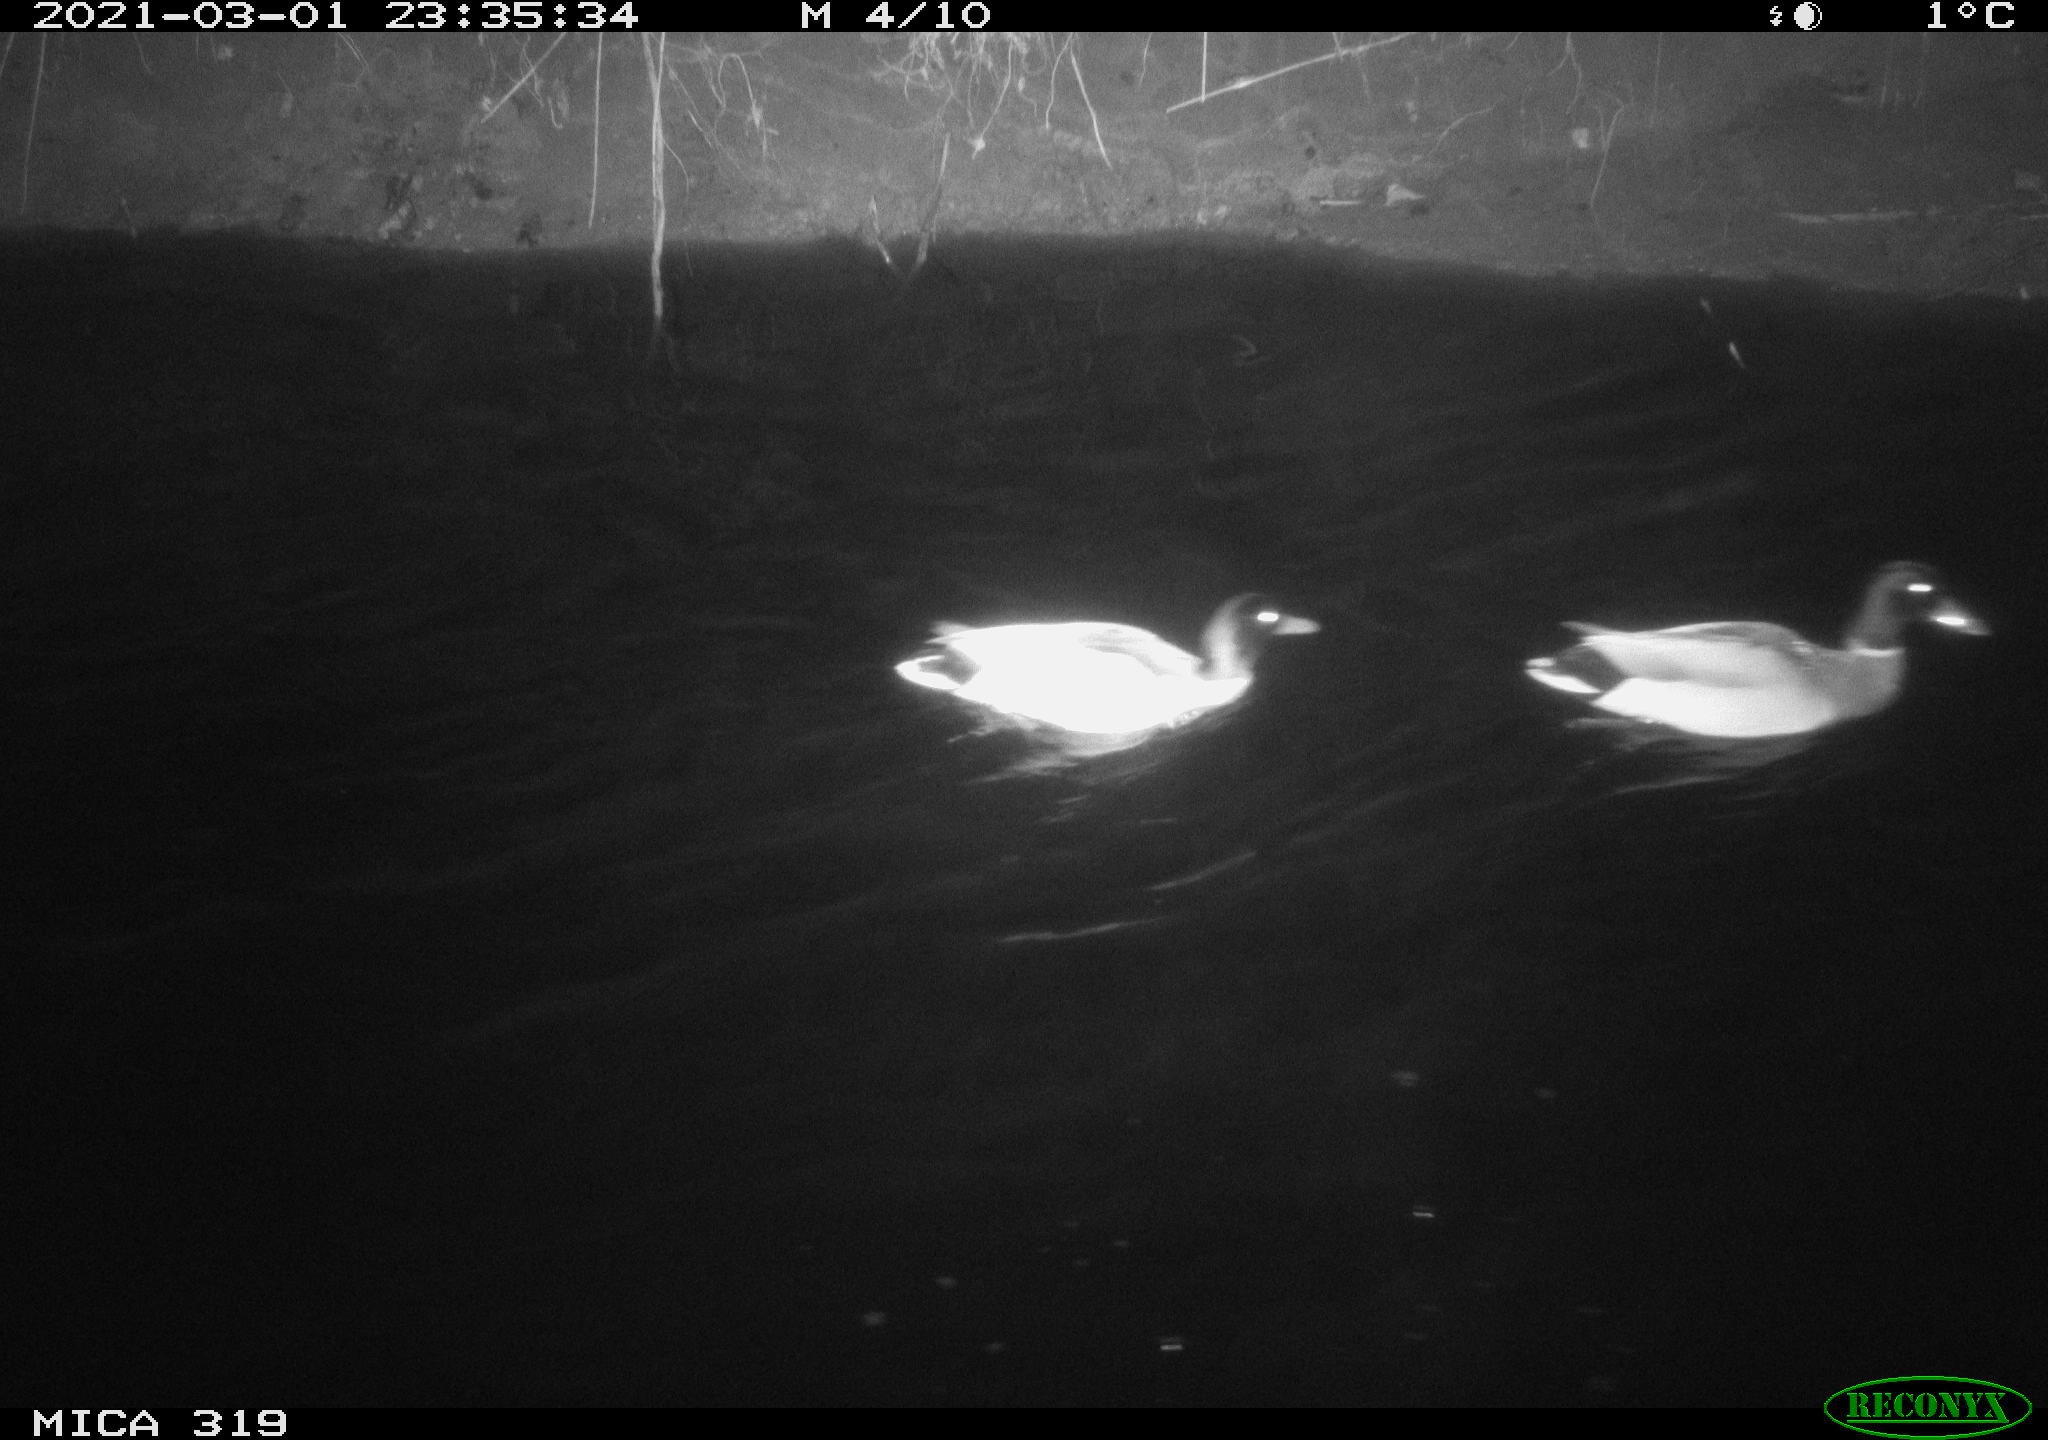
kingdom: Animalia
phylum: Chordata
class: Aves
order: Anseriformes
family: Anatidae
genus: Anas
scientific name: Anas platyrhynchos
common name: Mallard
